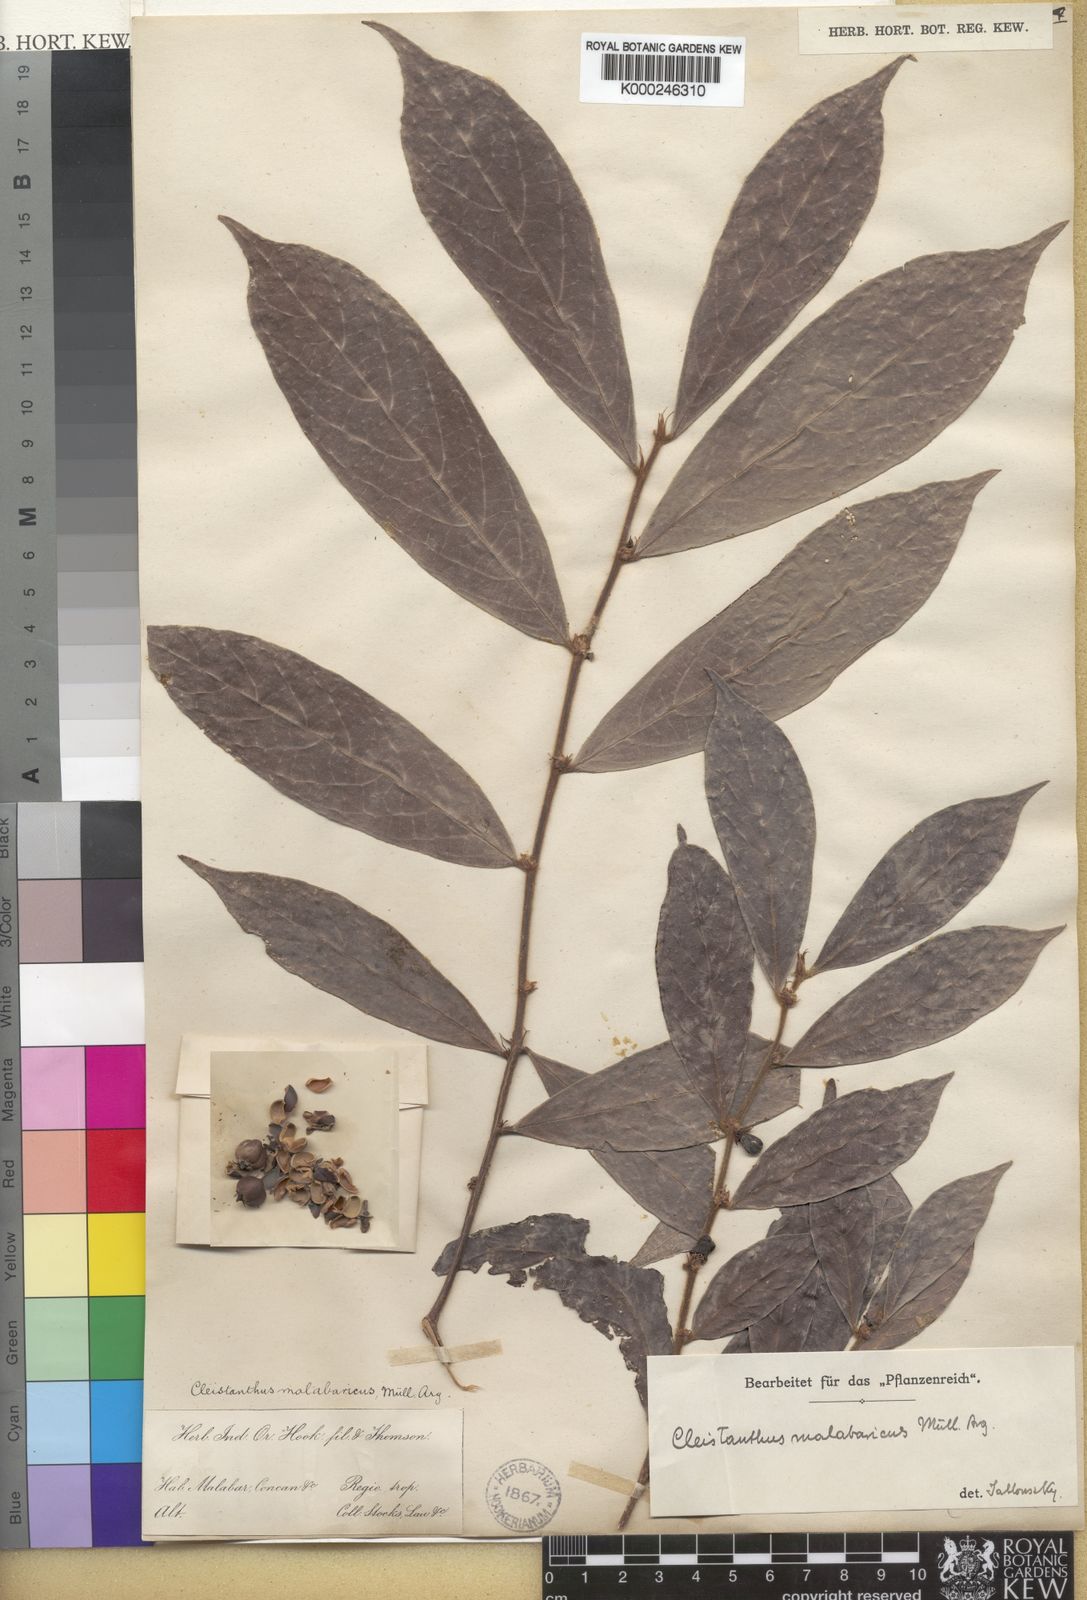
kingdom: Plantae
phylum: Tracheophyta
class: Magnoliopsida
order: Malpighiales
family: Phyllanthaceae
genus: Cleistanthus
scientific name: Cleistanthus
